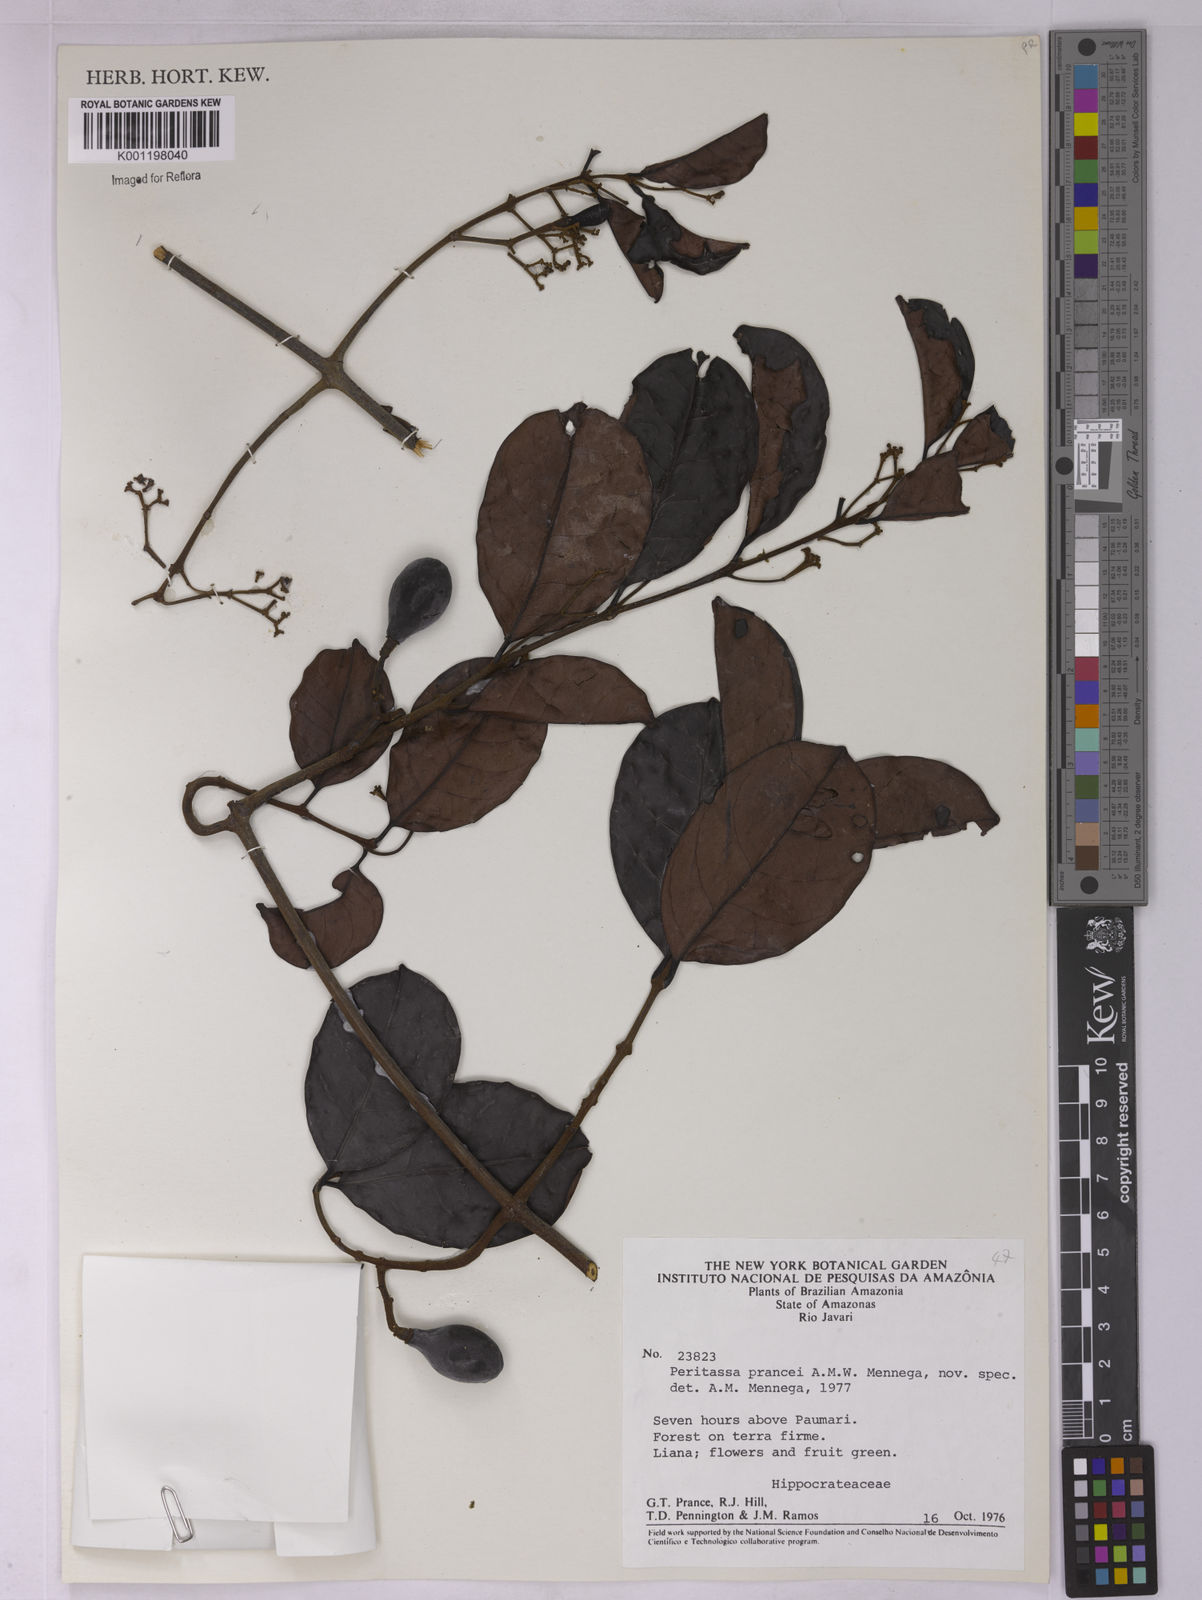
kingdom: Plantae
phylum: Tracheophyta
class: Magnoliopsida
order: Celastrales
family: Celastraceae
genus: Peritassa
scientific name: Peritassa
